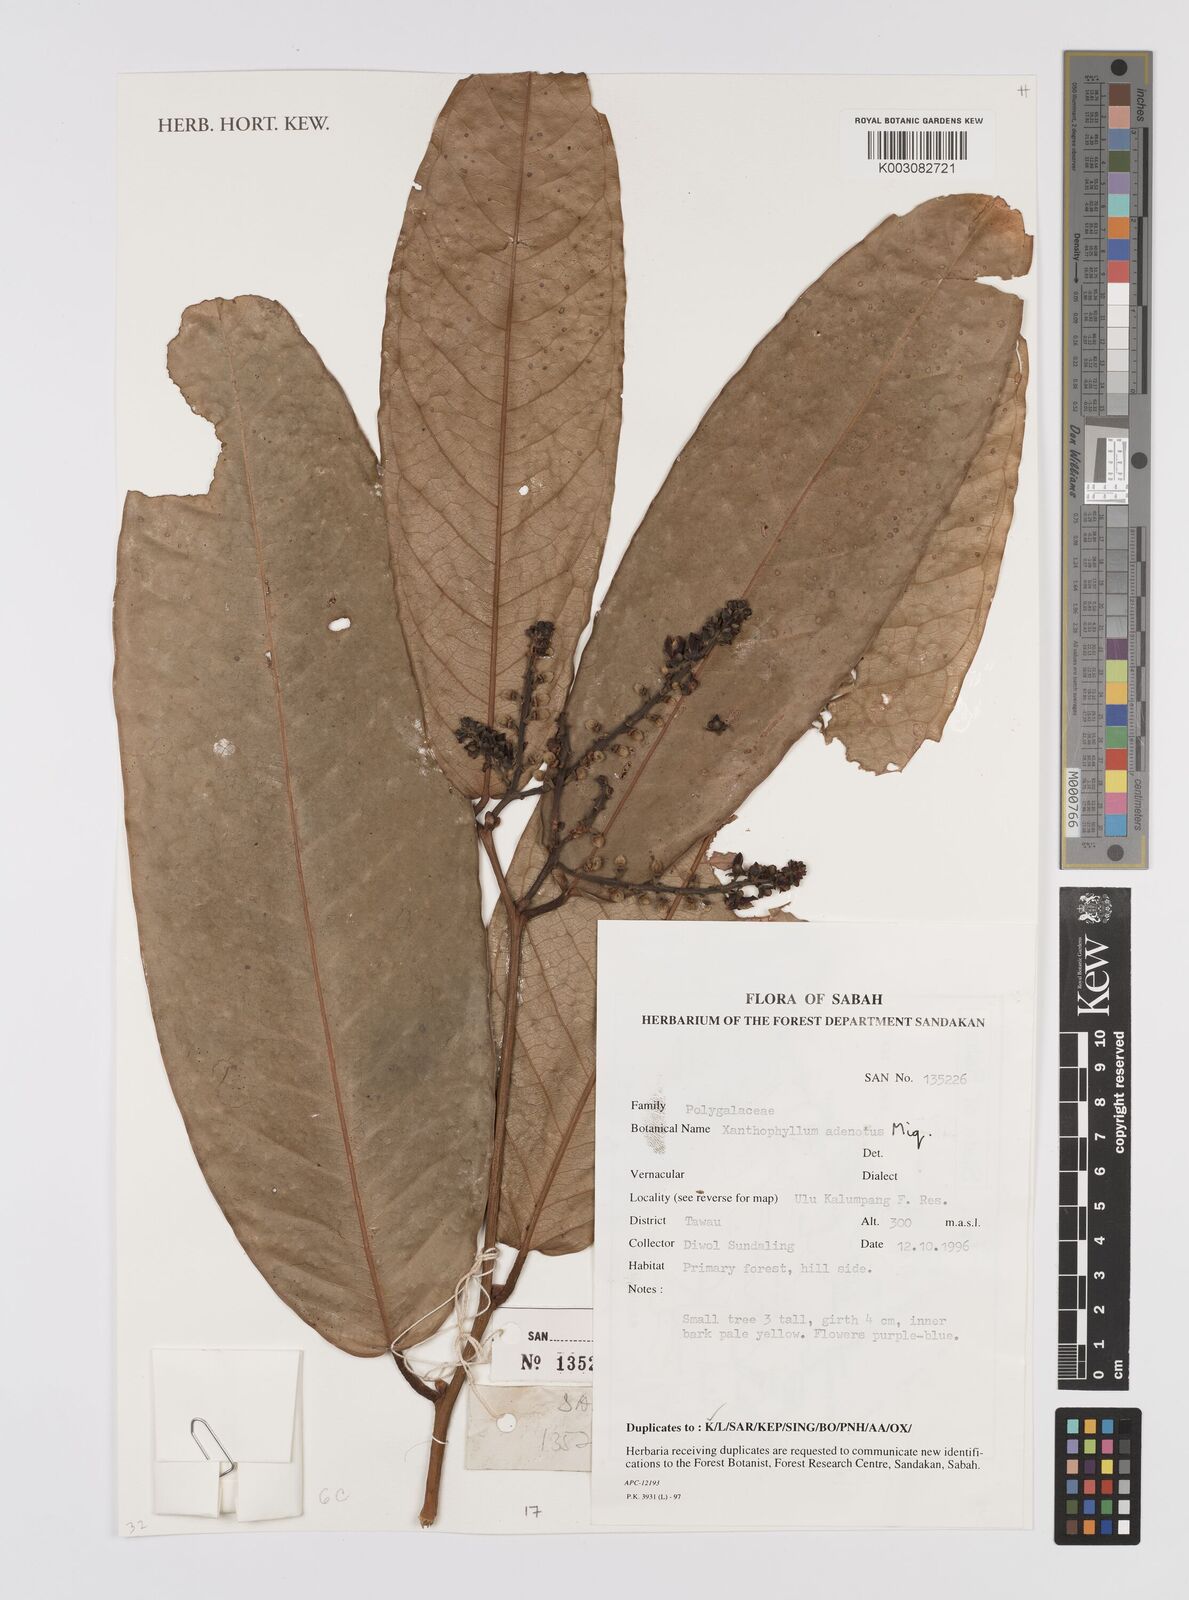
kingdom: Plantae
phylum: Tracheophyta
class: Magnoliopsida
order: Fabales
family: Polygalaceae
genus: Xanthophyllum
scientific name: Xanthophyllum adenotus
